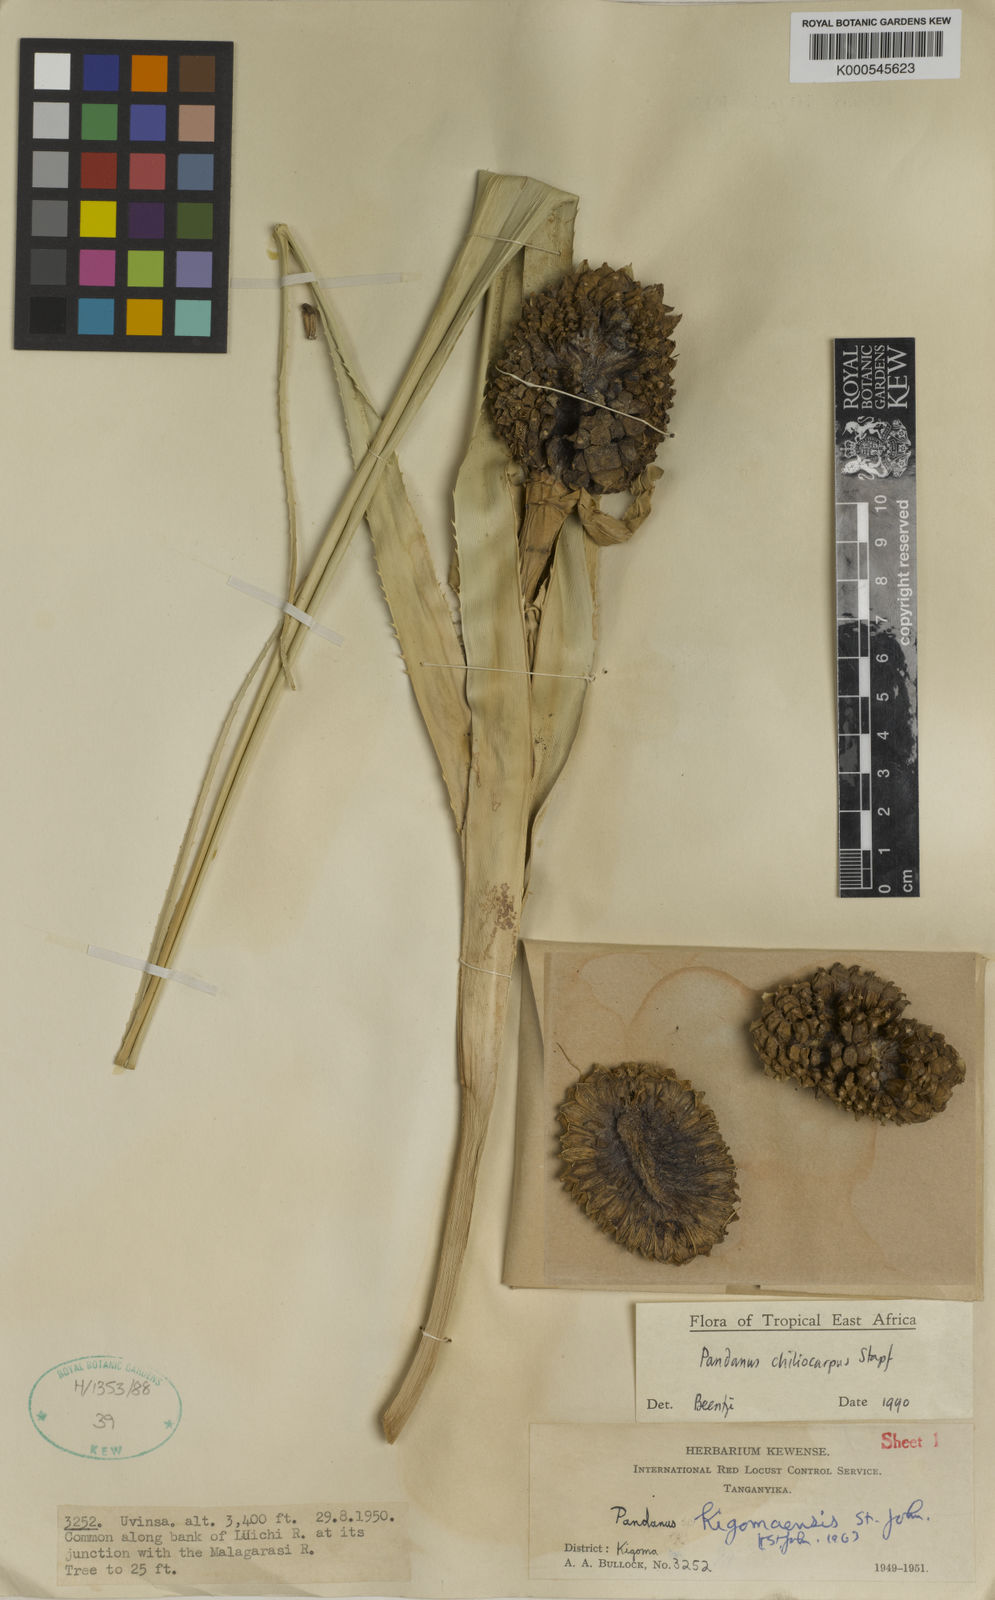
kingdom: Plantae
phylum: Tracheophyta
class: Liliopsida
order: Pandanales
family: Pandanaceae
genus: Pandanus
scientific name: Pandanus chiliocarpus
